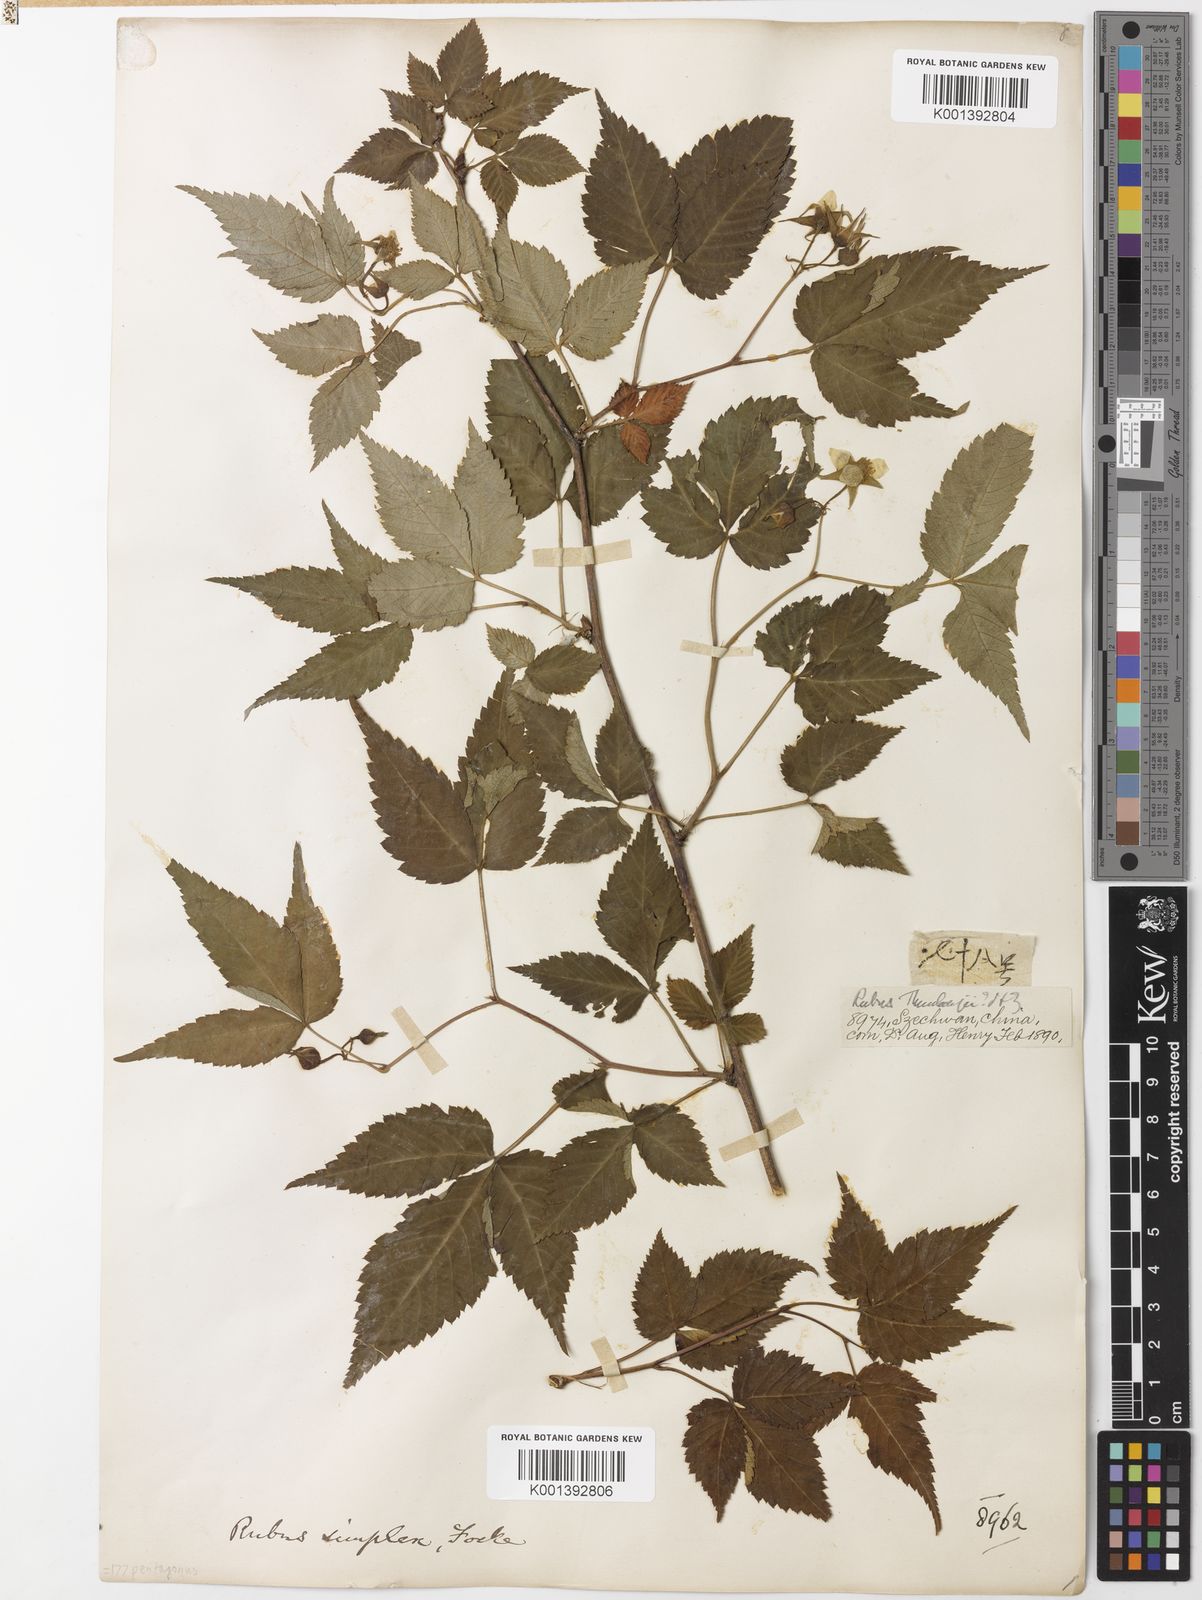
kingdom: Plantae
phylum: Tracheophyta
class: Magnoliopsida
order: Rosales
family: Rosaceae
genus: Rubus
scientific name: Rubus simplex
